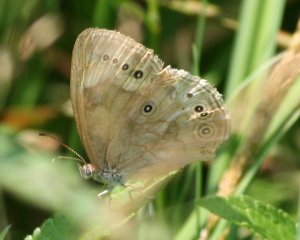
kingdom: Animalia
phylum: Arthropoda
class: Insecta
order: Lepidoptera
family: Nymphalidae
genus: Lethe
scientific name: Lethe eurydice
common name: Eyed Brown
